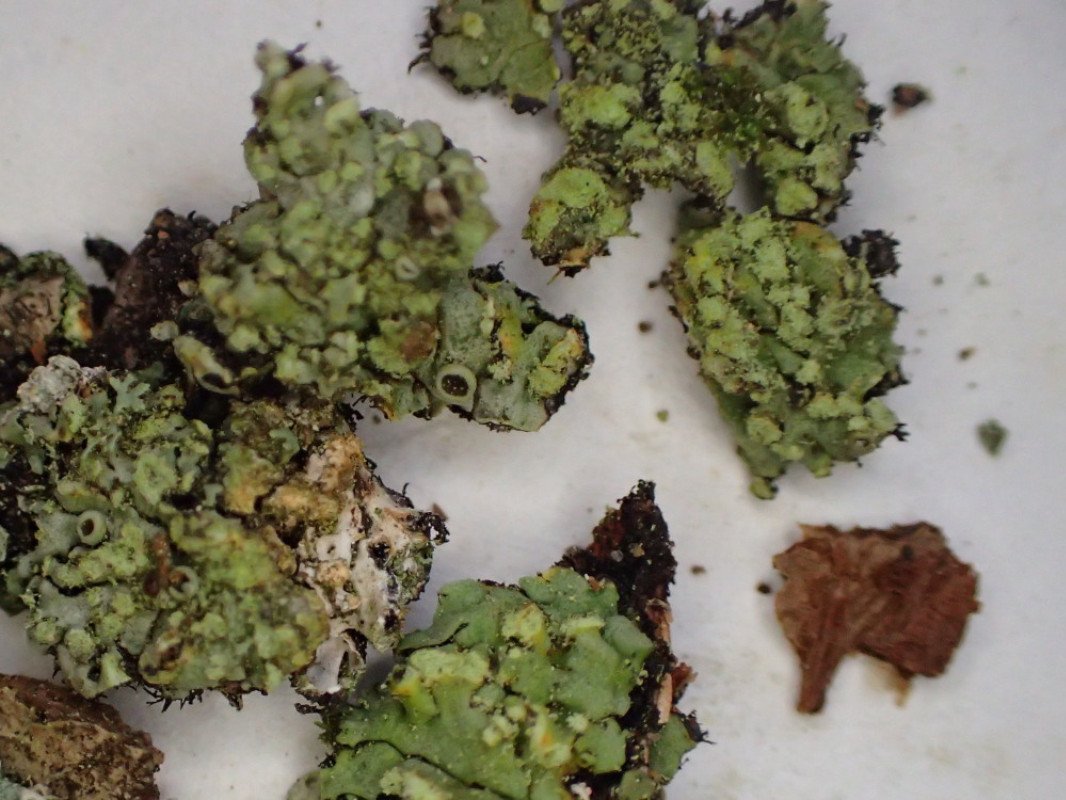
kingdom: Fungi
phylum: Ascomycota
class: Lecanoromycetes
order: Caliciales
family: Physciaceae
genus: Phaeophyscia
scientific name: Phaeophyscia orbicularis
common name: grågrøn rosetlav
